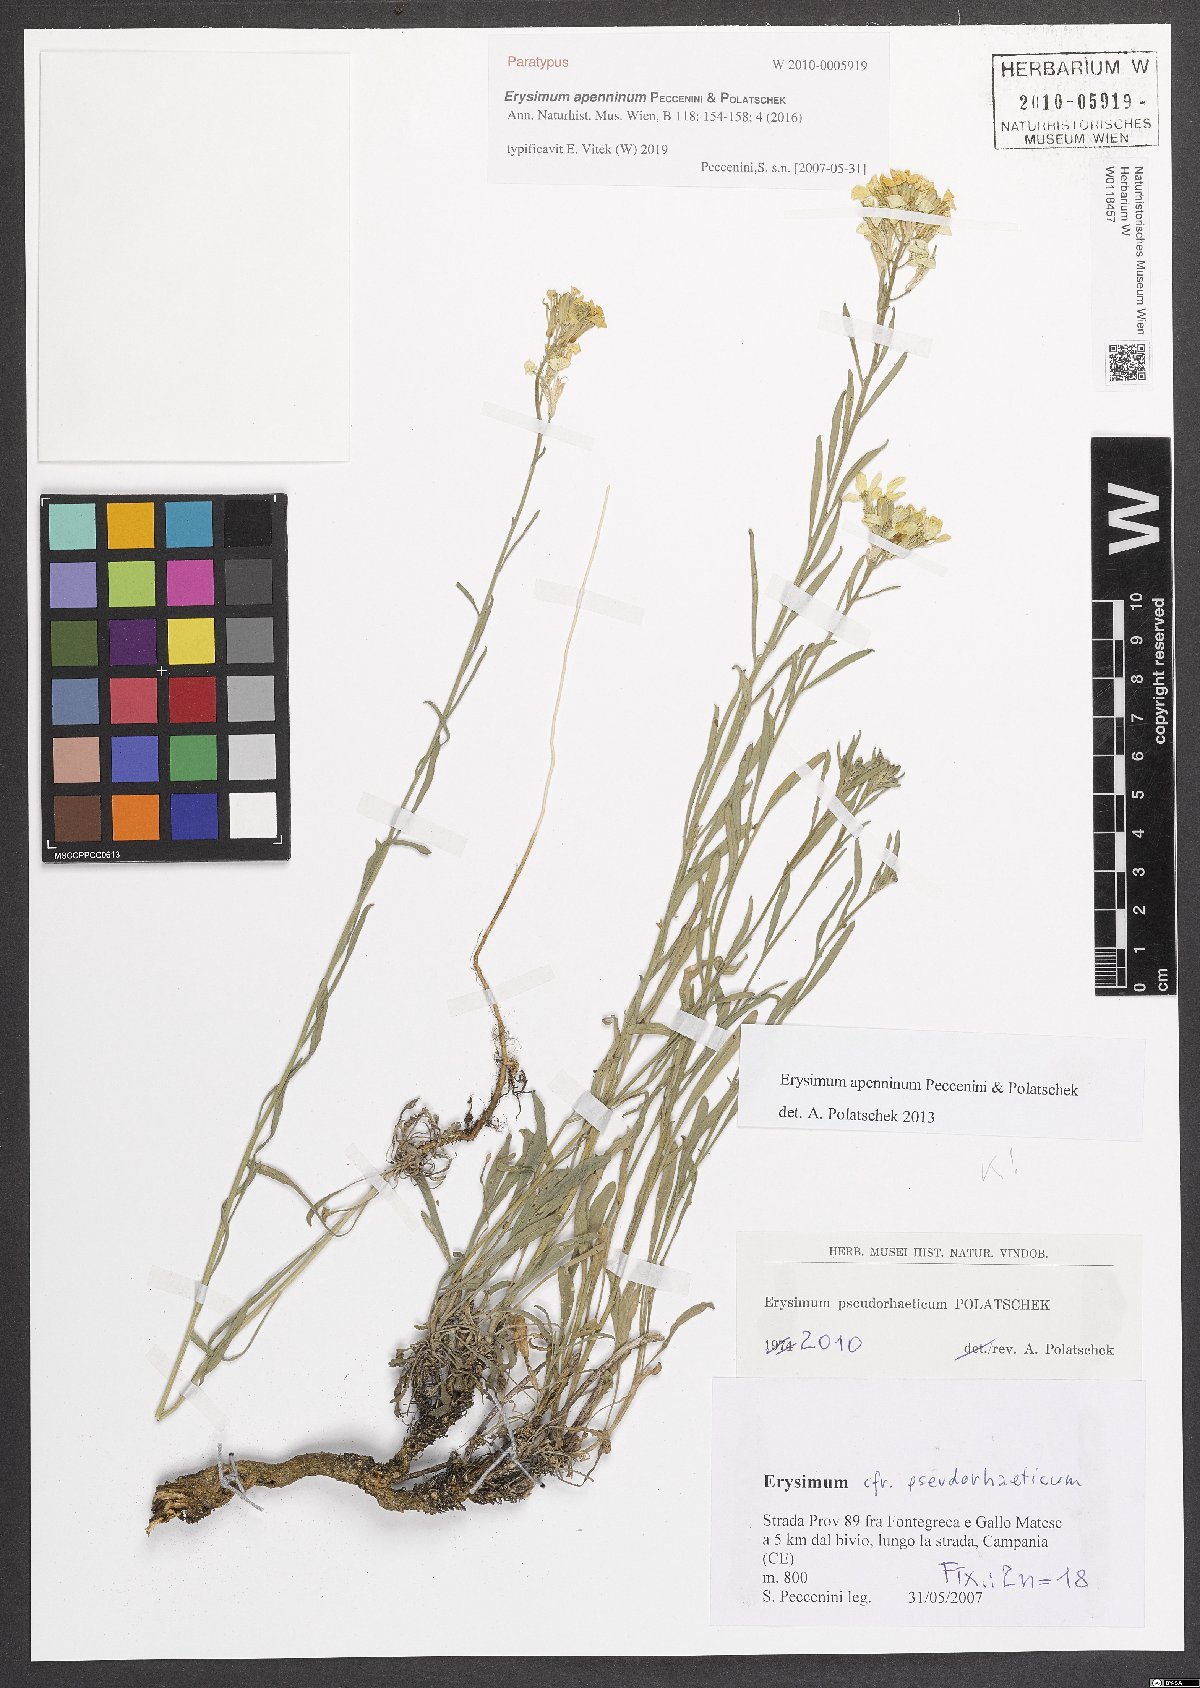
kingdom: Plantae
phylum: Tracheophyta
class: Magnoliopsida
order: Brassicales
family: Brassicaceae
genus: Erysimum
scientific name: Erysimum apenninum
